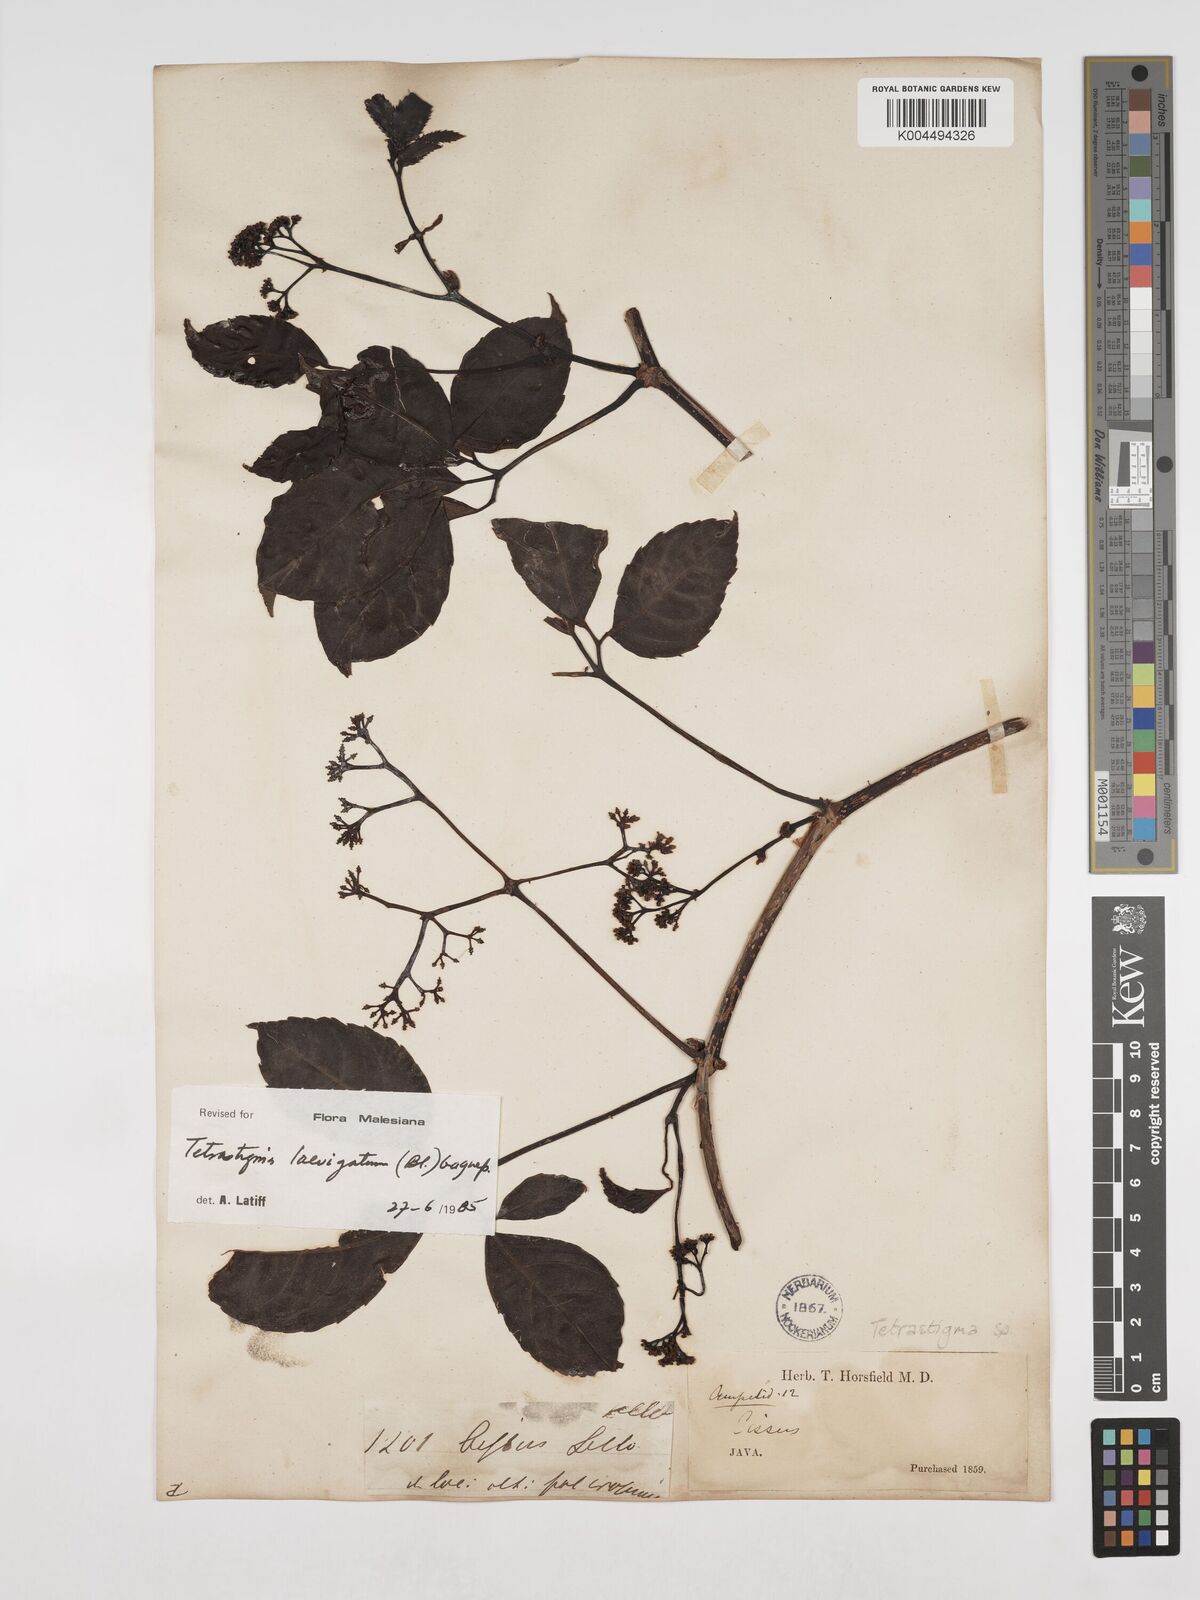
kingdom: Plantae
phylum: Tracheophyta
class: Magnoliopsida
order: Vitales
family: Vitaceae
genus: Tetrastigma
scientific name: Tetrastigma laevigatum
